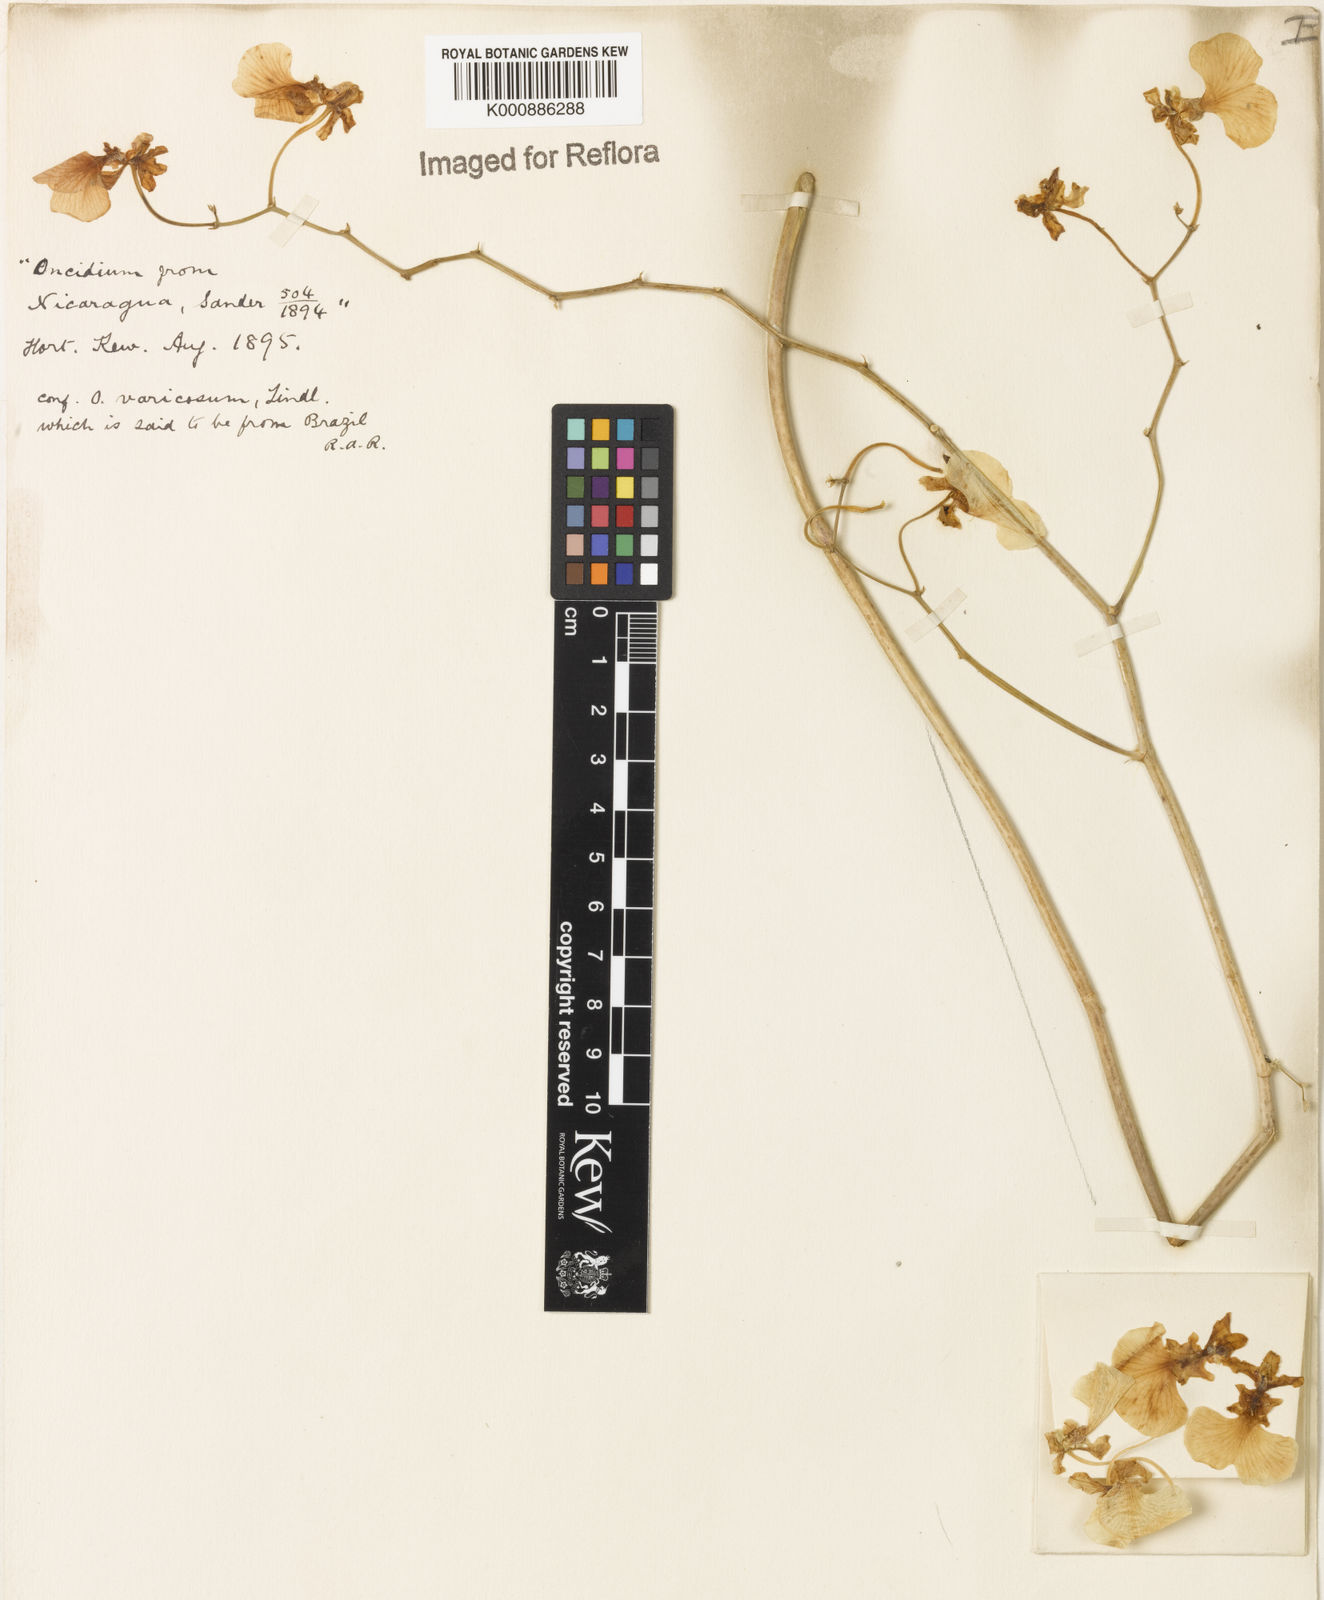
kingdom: Plantae
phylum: Tracheophyta
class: Liliopsida
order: Asparagales
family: Orchidaceae
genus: Gomesa
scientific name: Gomesa bifolia
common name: Dancing ladies
